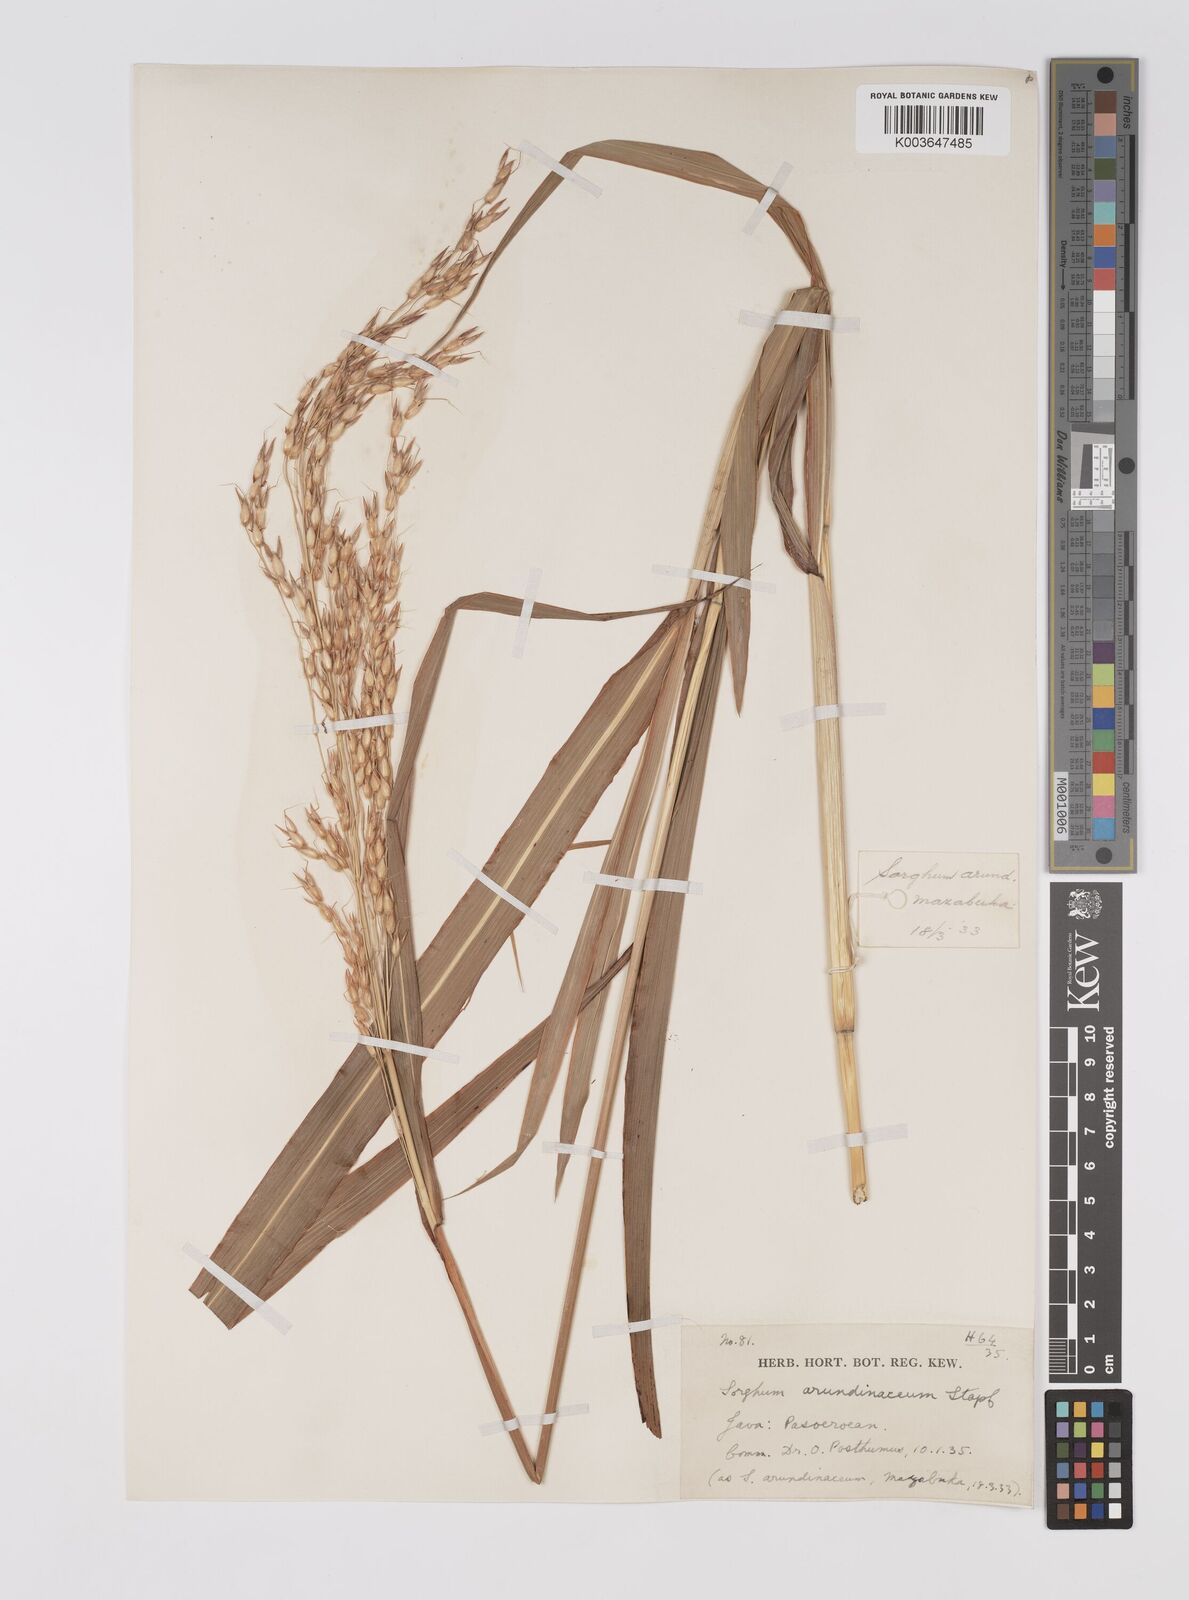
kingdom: Plantae
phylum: Tracheophyta
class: Liliopsida
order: Poales
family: Poaceae
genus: Sorghum
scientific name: Sorghum arundinaceum
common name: Sorghum
